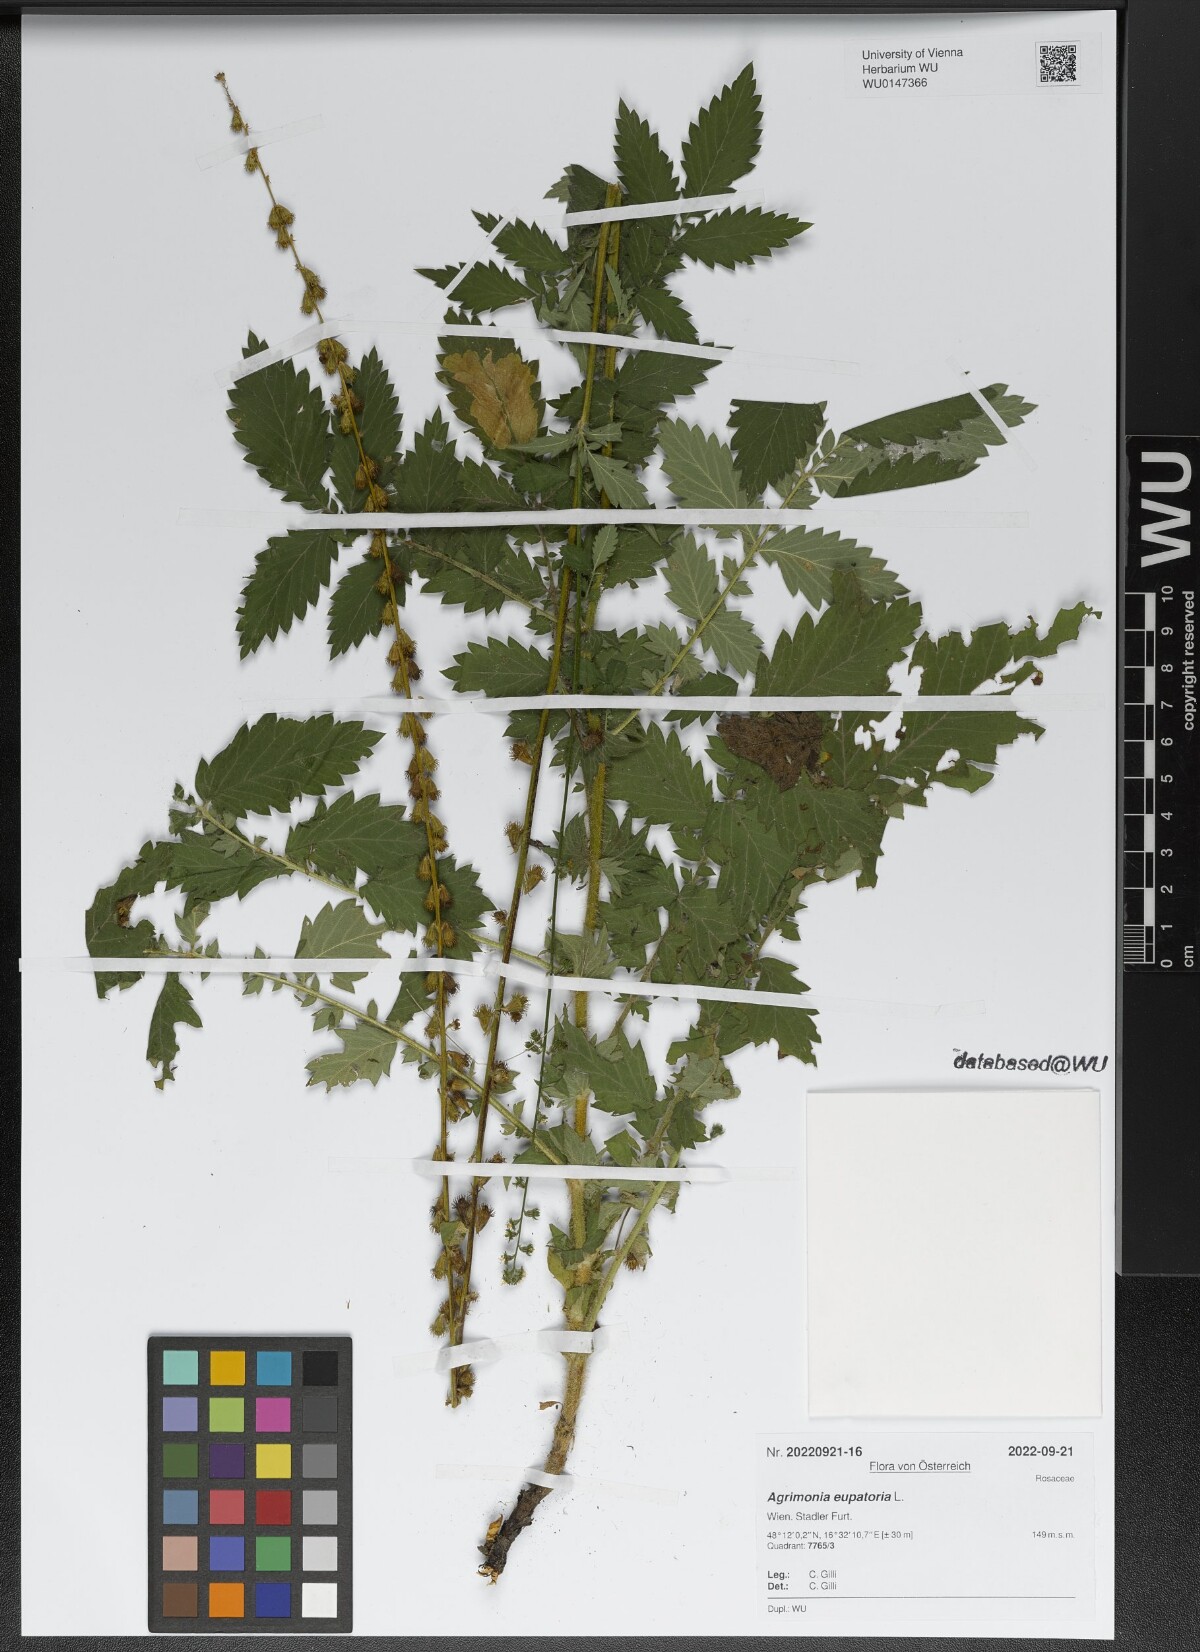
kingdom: Plantae
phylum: Tracheophyta
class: Magnoliopsida
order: Rosales
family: Rosaceae
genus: Agrimonia
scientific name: Agrimonia eupatoria
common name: Agrimony
